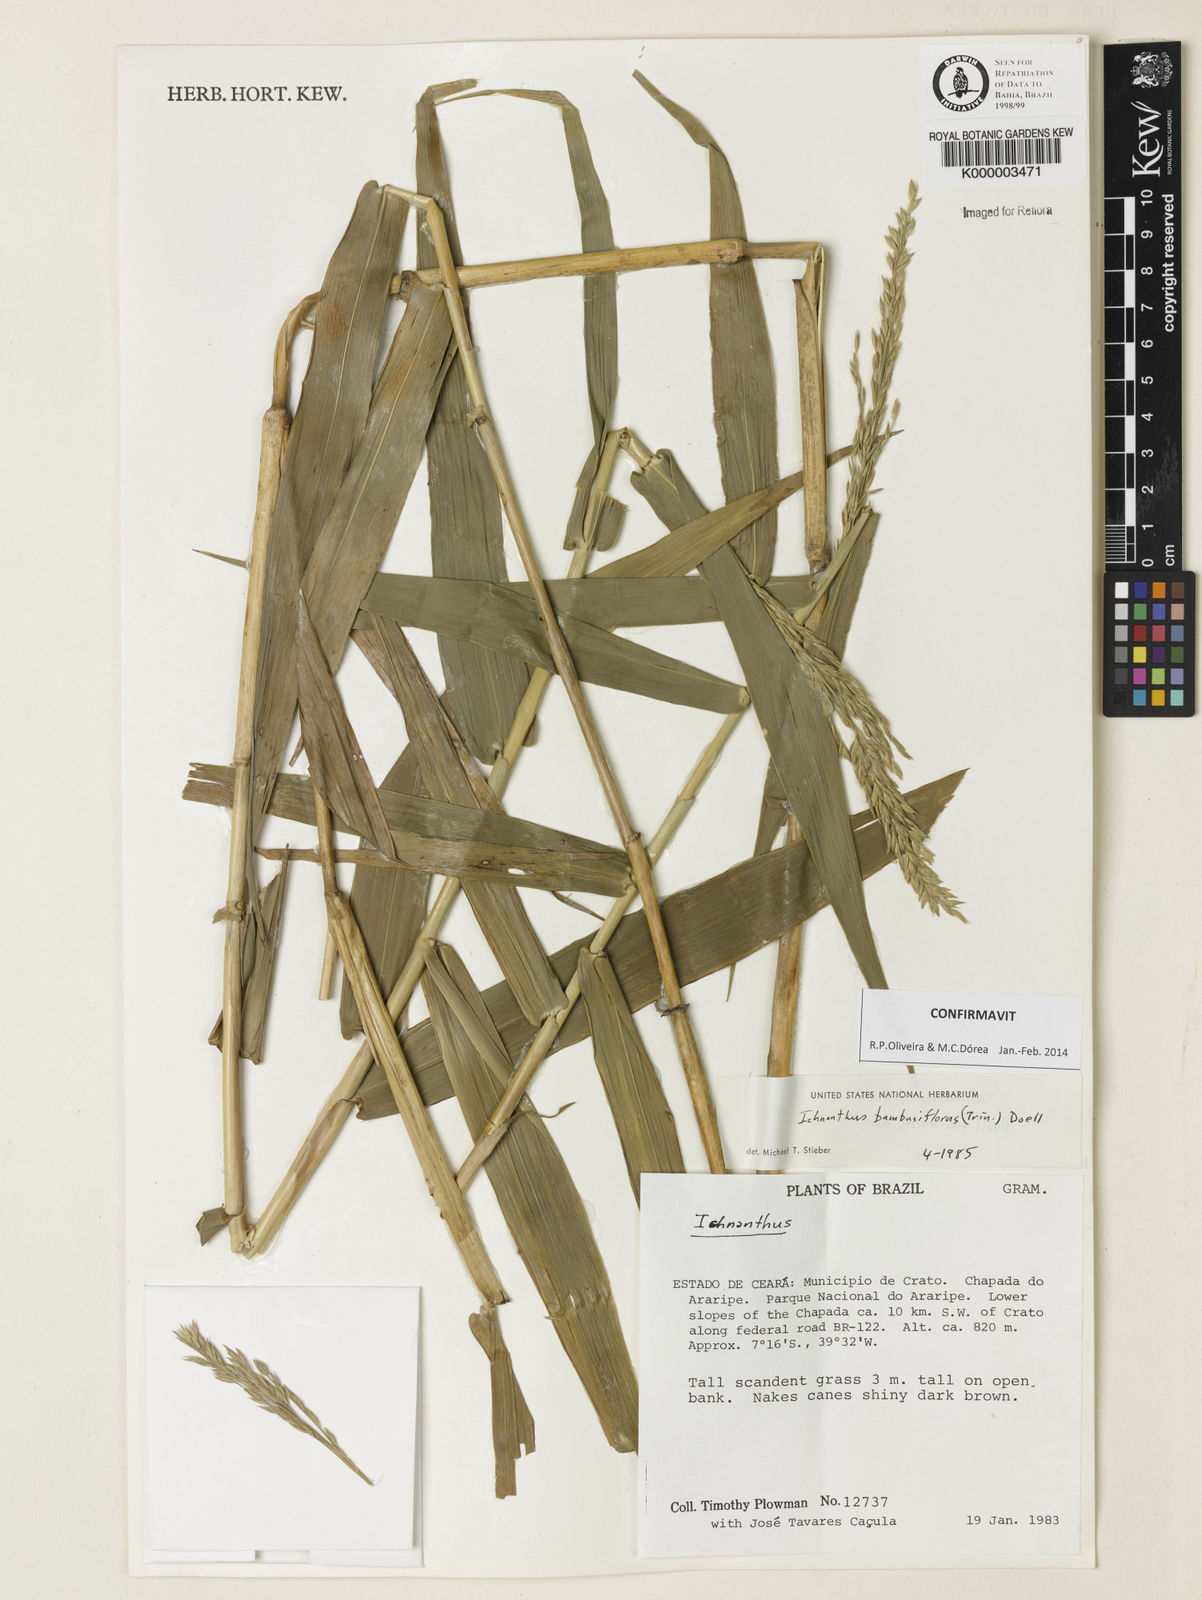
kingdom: Plantae
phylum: Tracheophyta
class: Liliopsida
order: Poales
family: Poaceae
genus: Ichnanthus
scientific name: Ichnanthus
